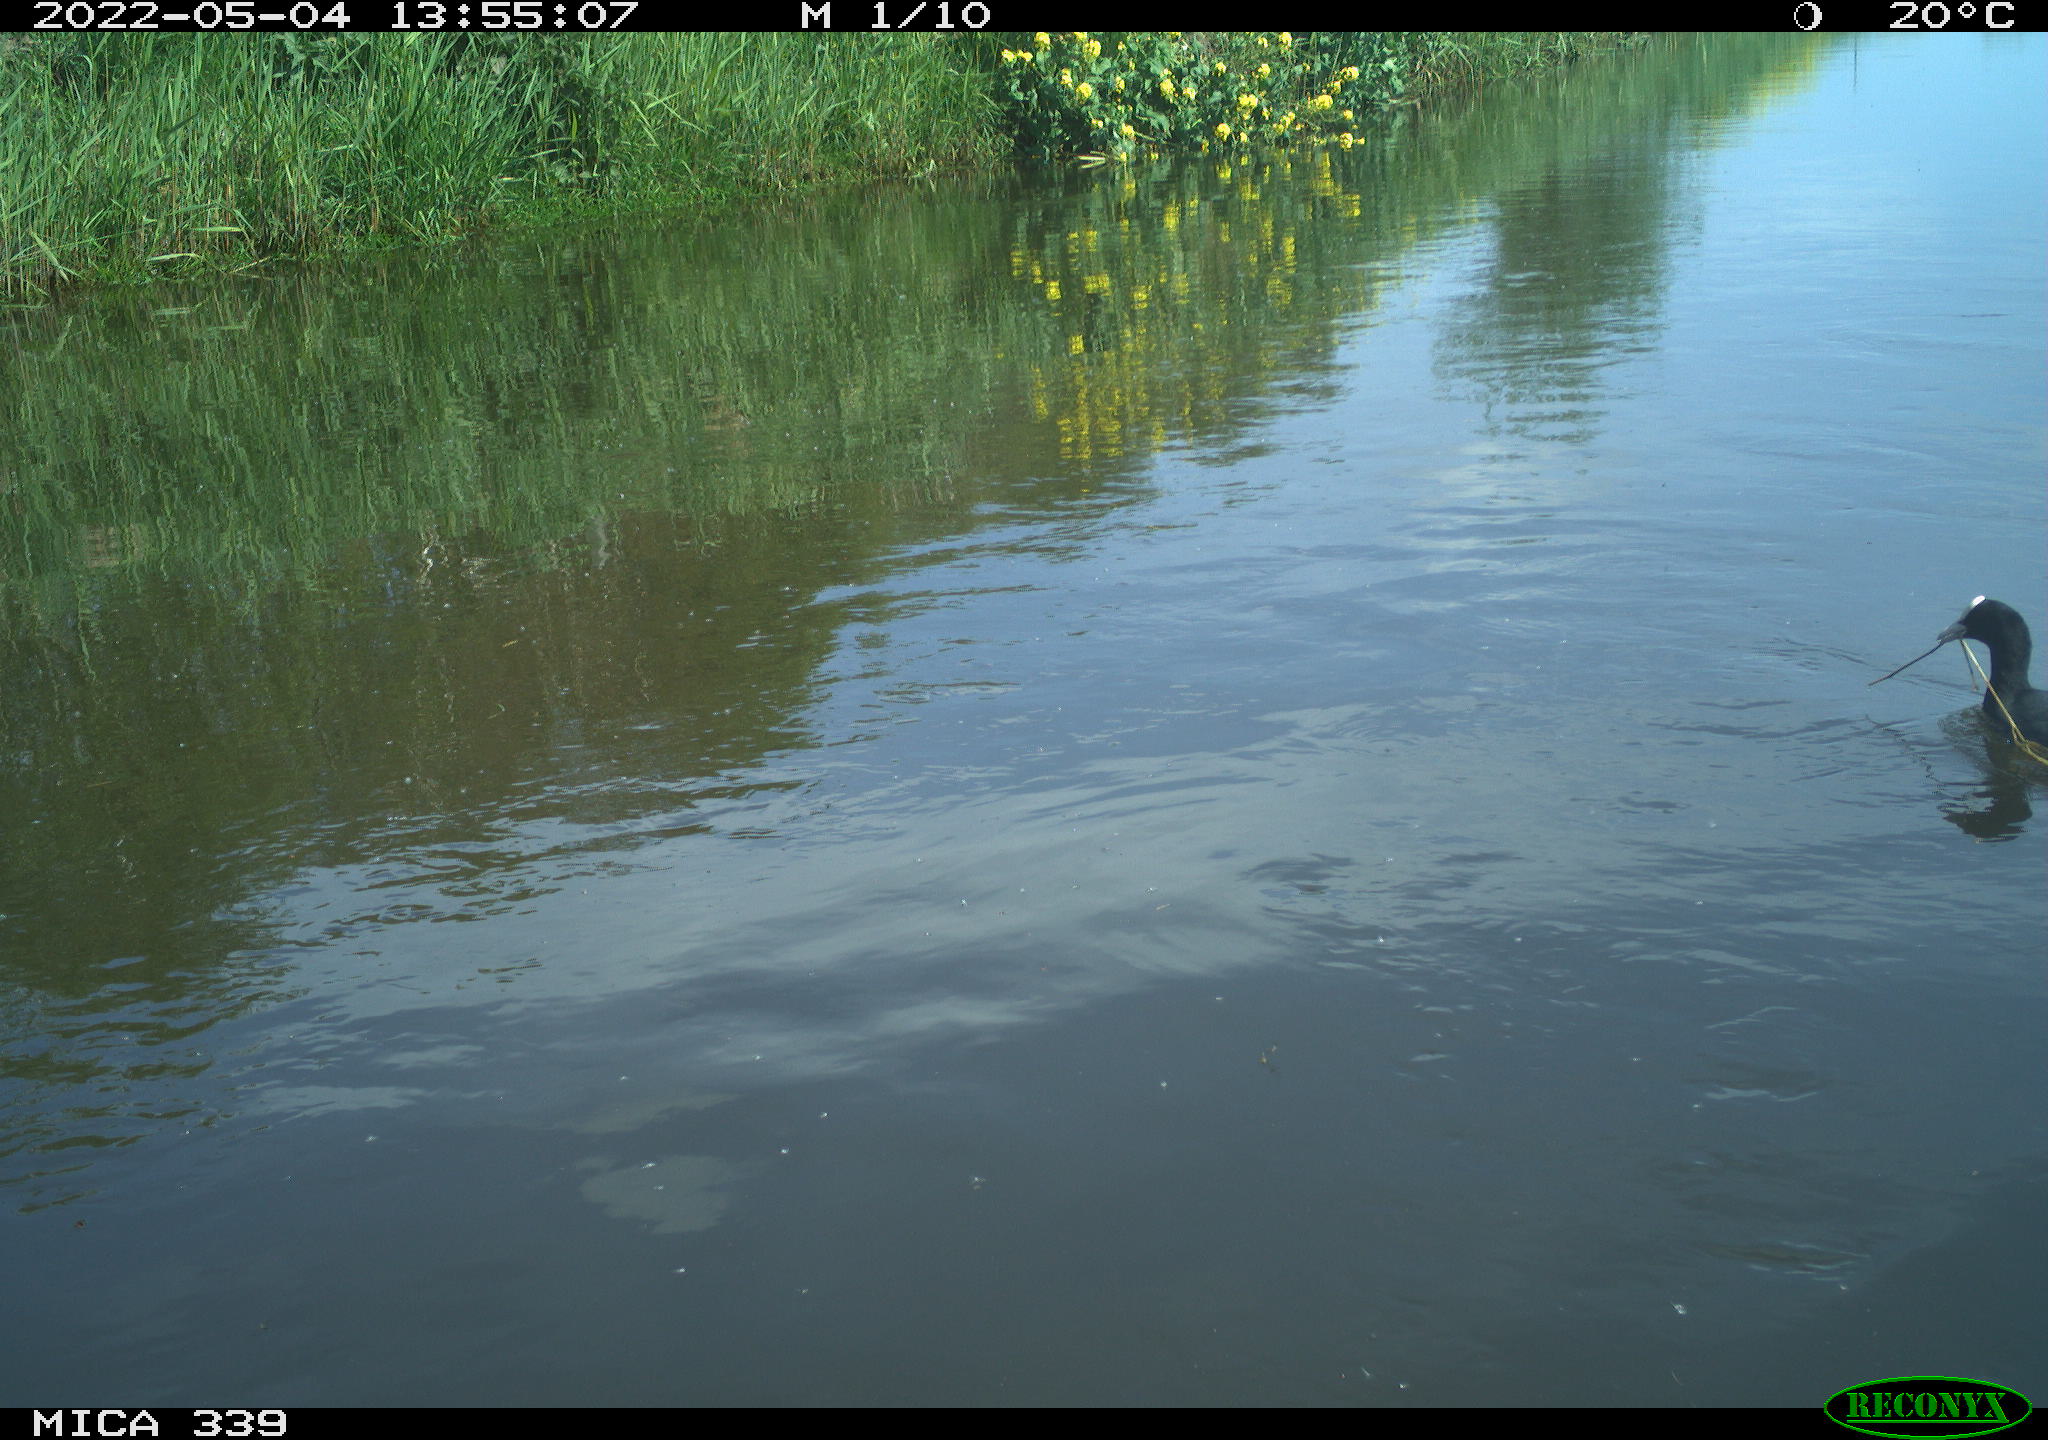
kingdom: Animalia
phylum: Chordata
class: Aves
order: Gruiformes
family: Rallidae
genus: Fulica
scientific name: Fulica atra
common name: Eurasian coot
